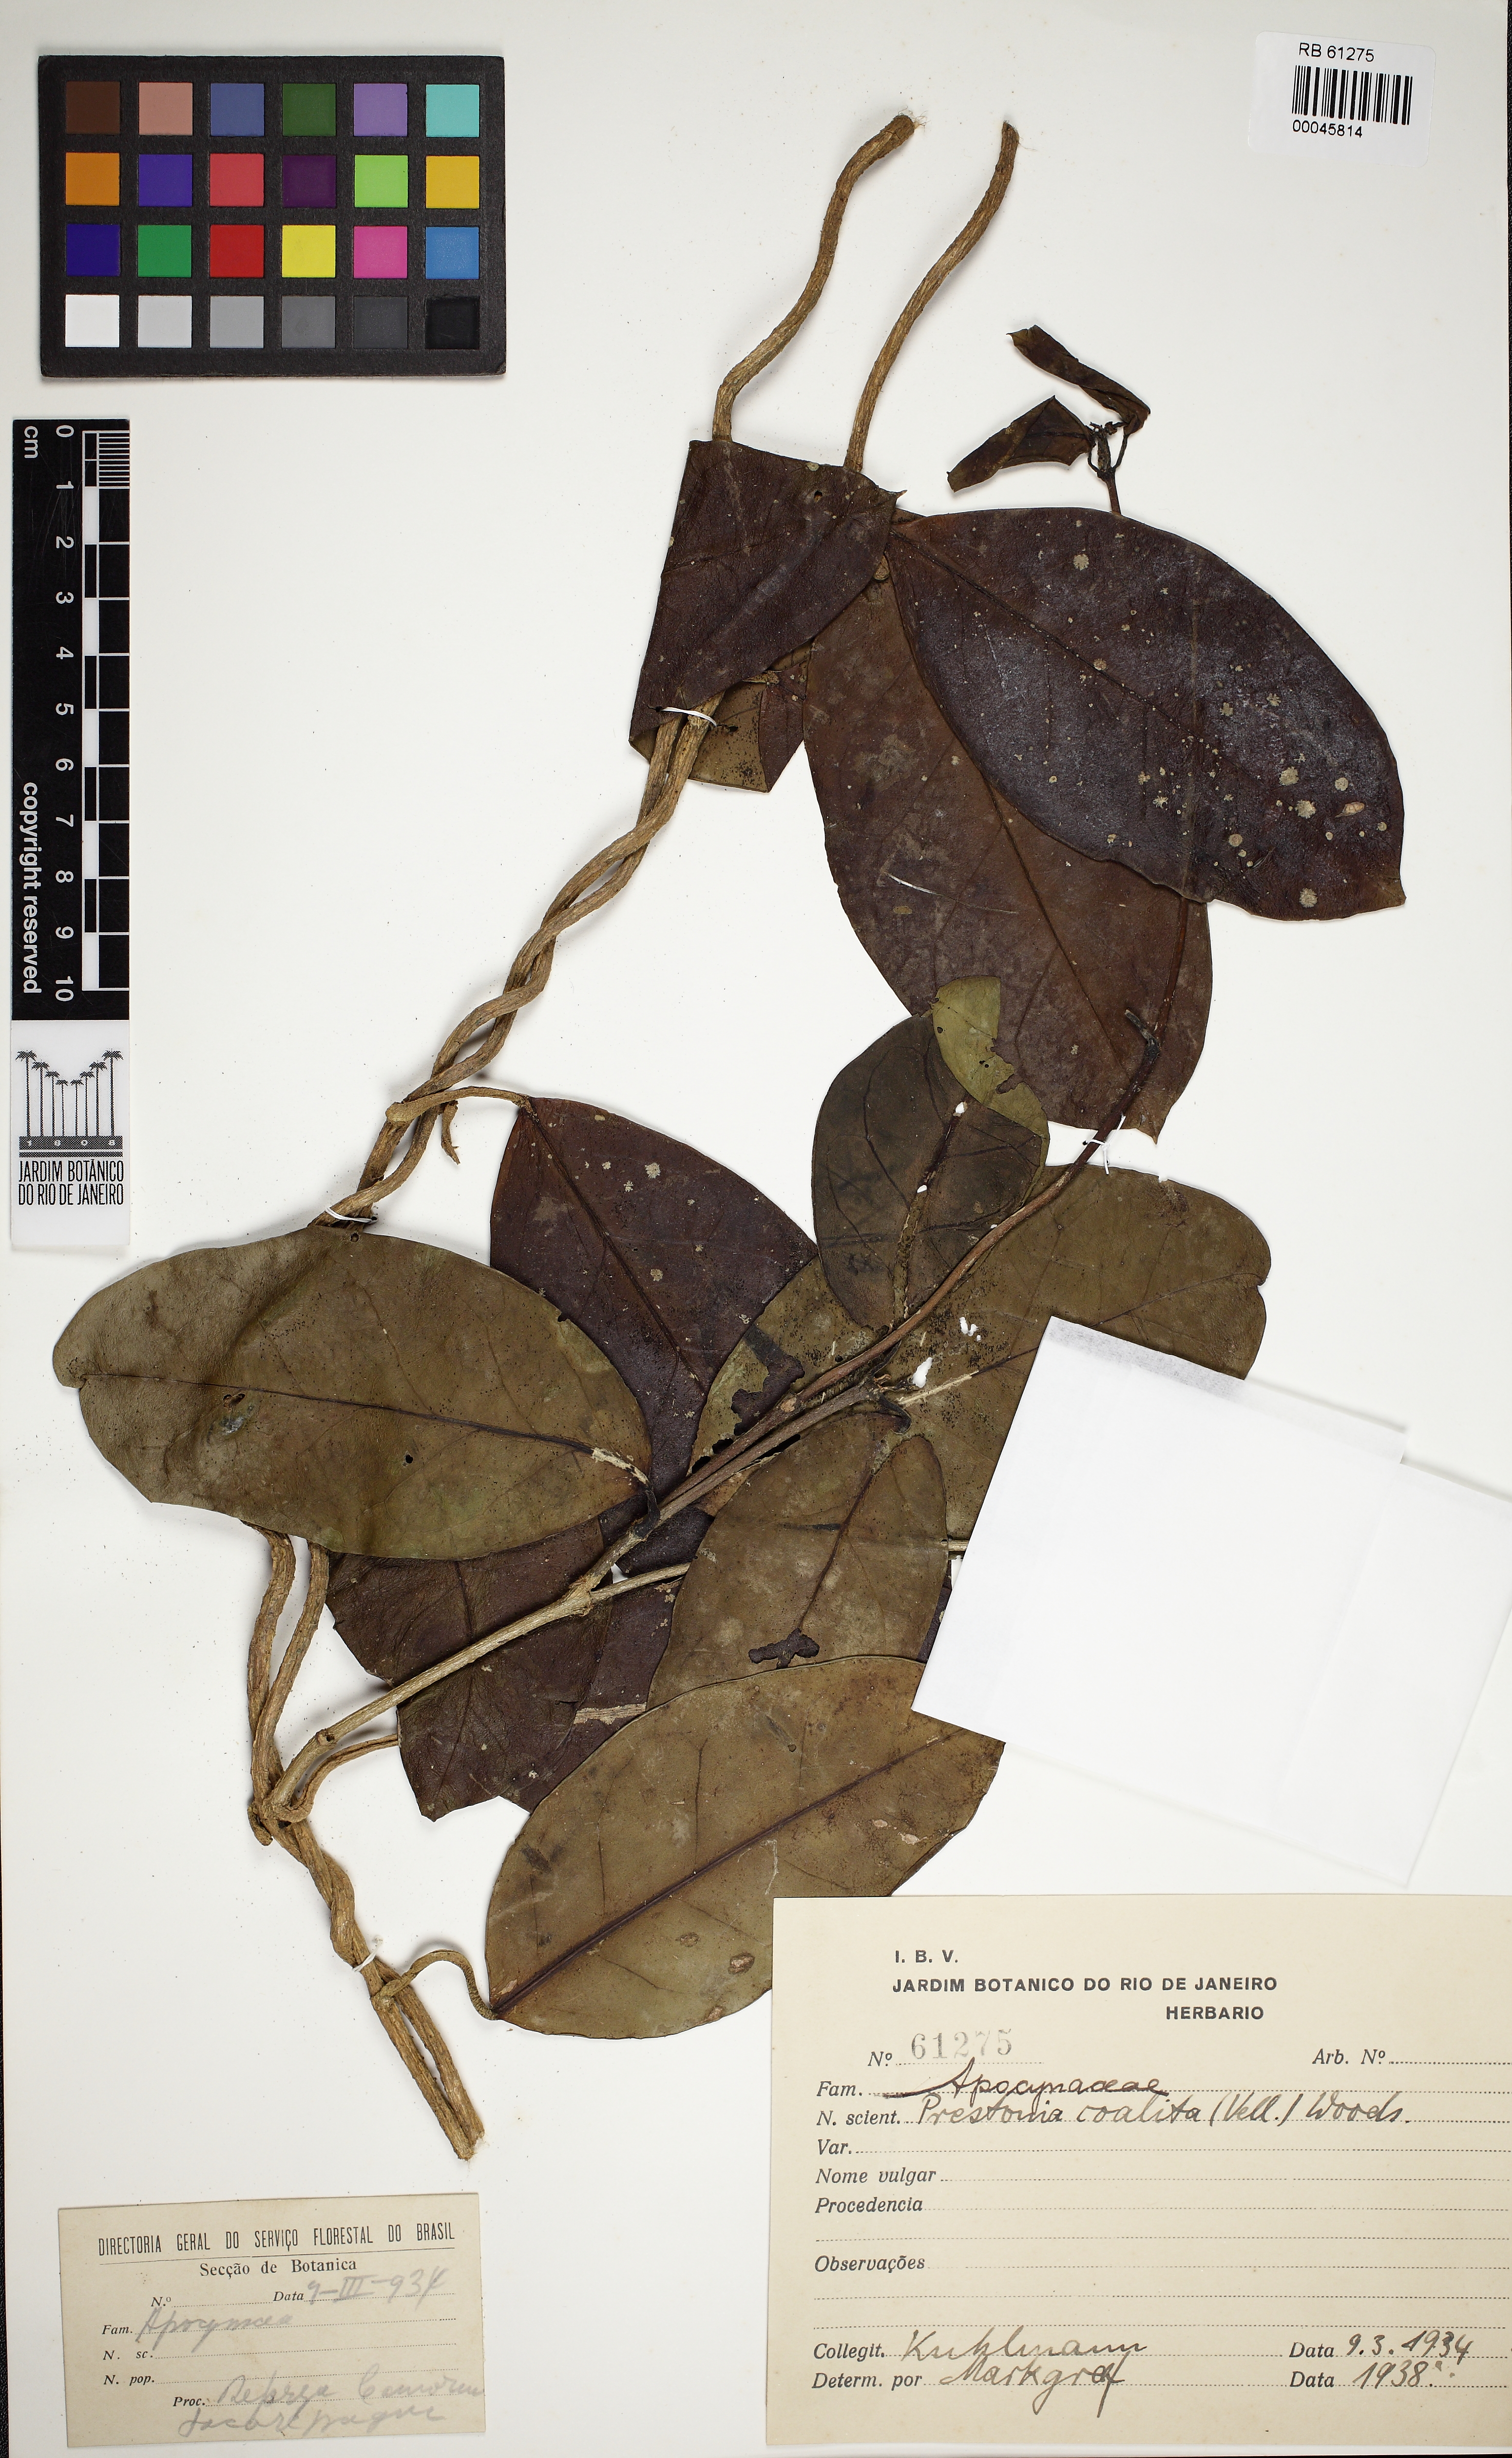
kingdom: Plantae
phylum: Tracheophyta
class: Magnoliopsida
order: Gentianales
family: Apocynaceae
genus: Prestonia
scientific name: Prestonia coalita
